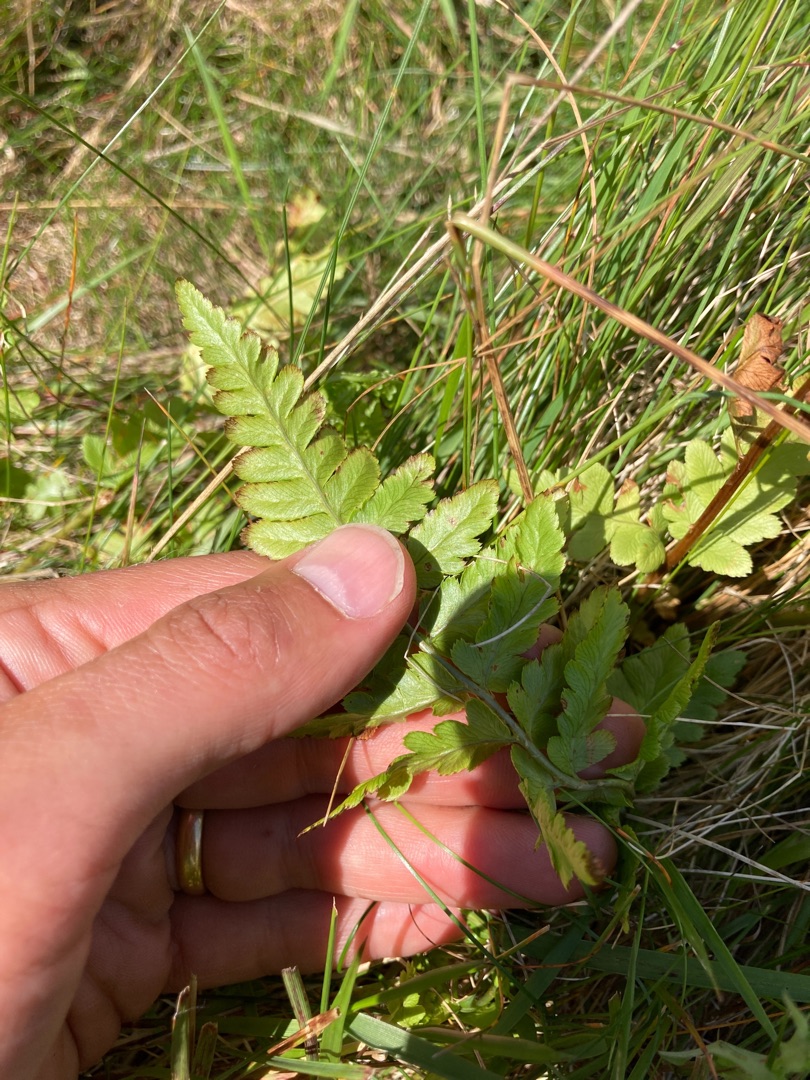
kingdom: Plantae
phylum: Tracheophyta
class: Polypodiopsida
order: Polypodiales
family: Dryopteridaceae
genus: Dryopteris
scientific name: Dryopteris cristata
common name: Butfinnet mangeløv
